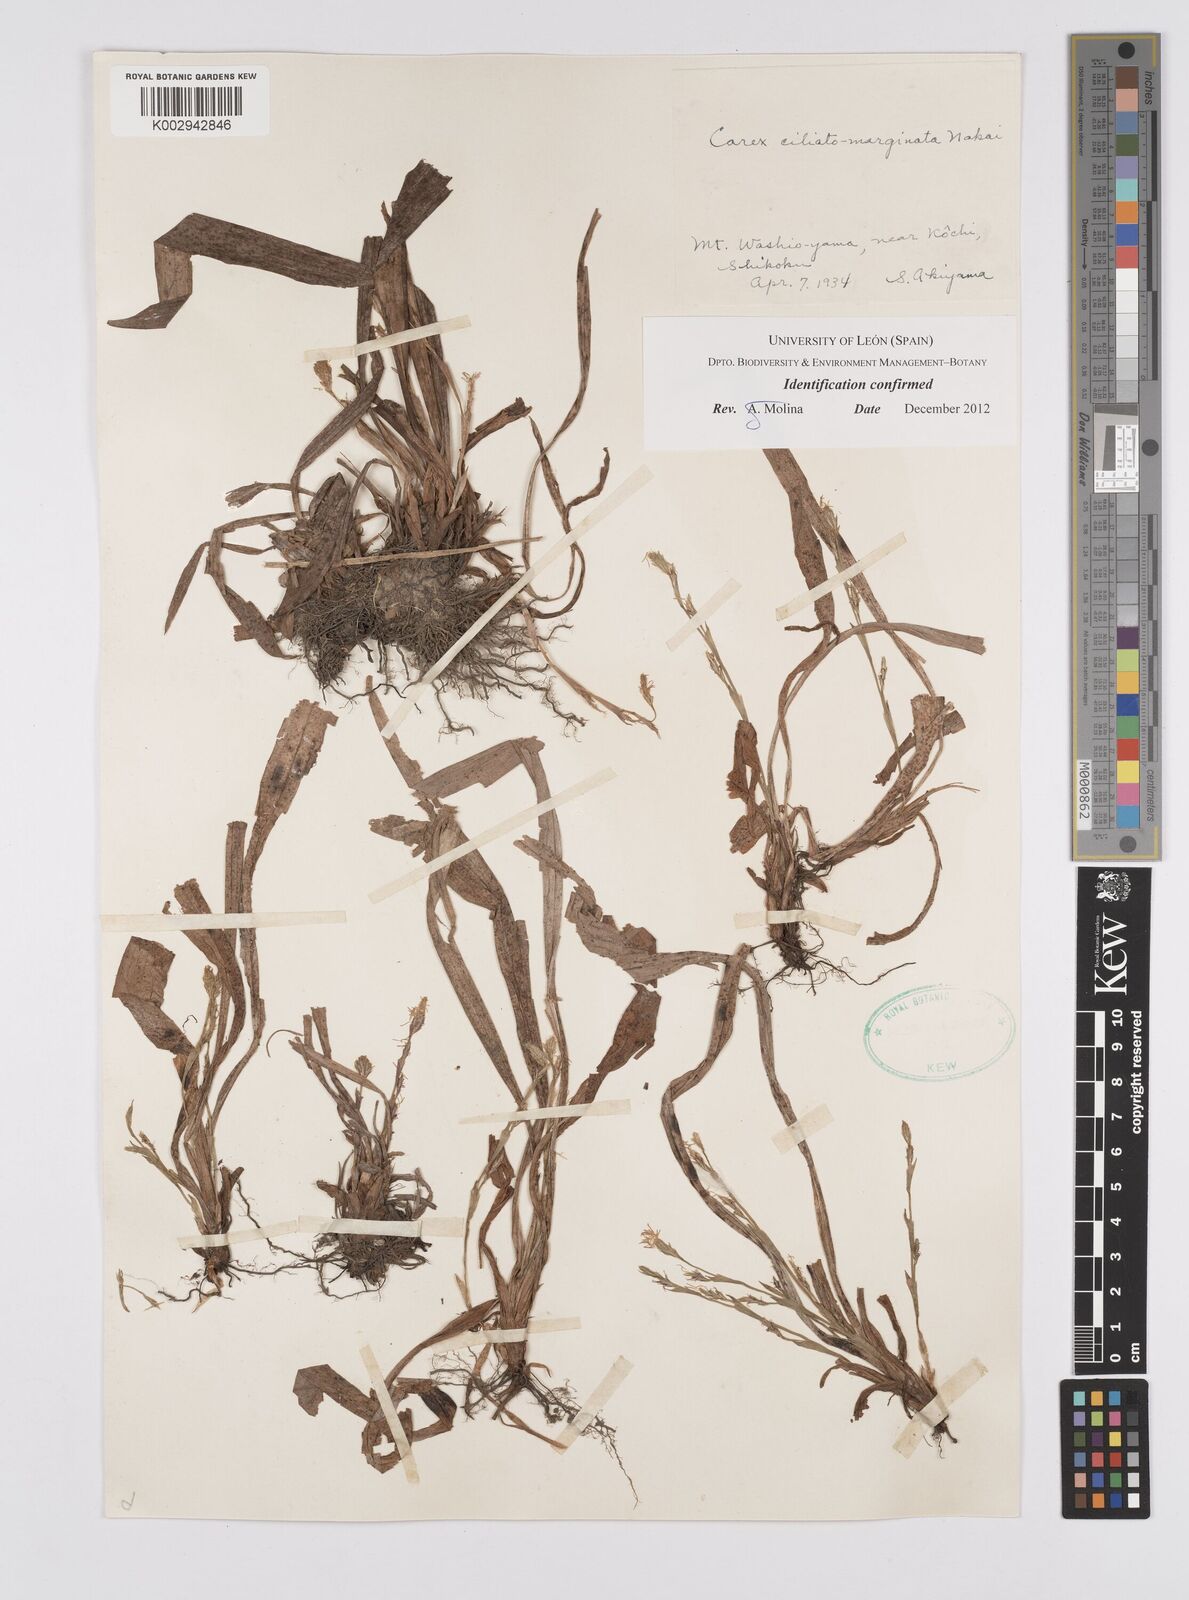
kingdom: Plantae
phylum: Tracheophyta
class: Liliopsida
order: Poales
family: Cyperaceae
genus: Carex
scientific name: Carex siderosticta
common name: Broadleaf sedge
